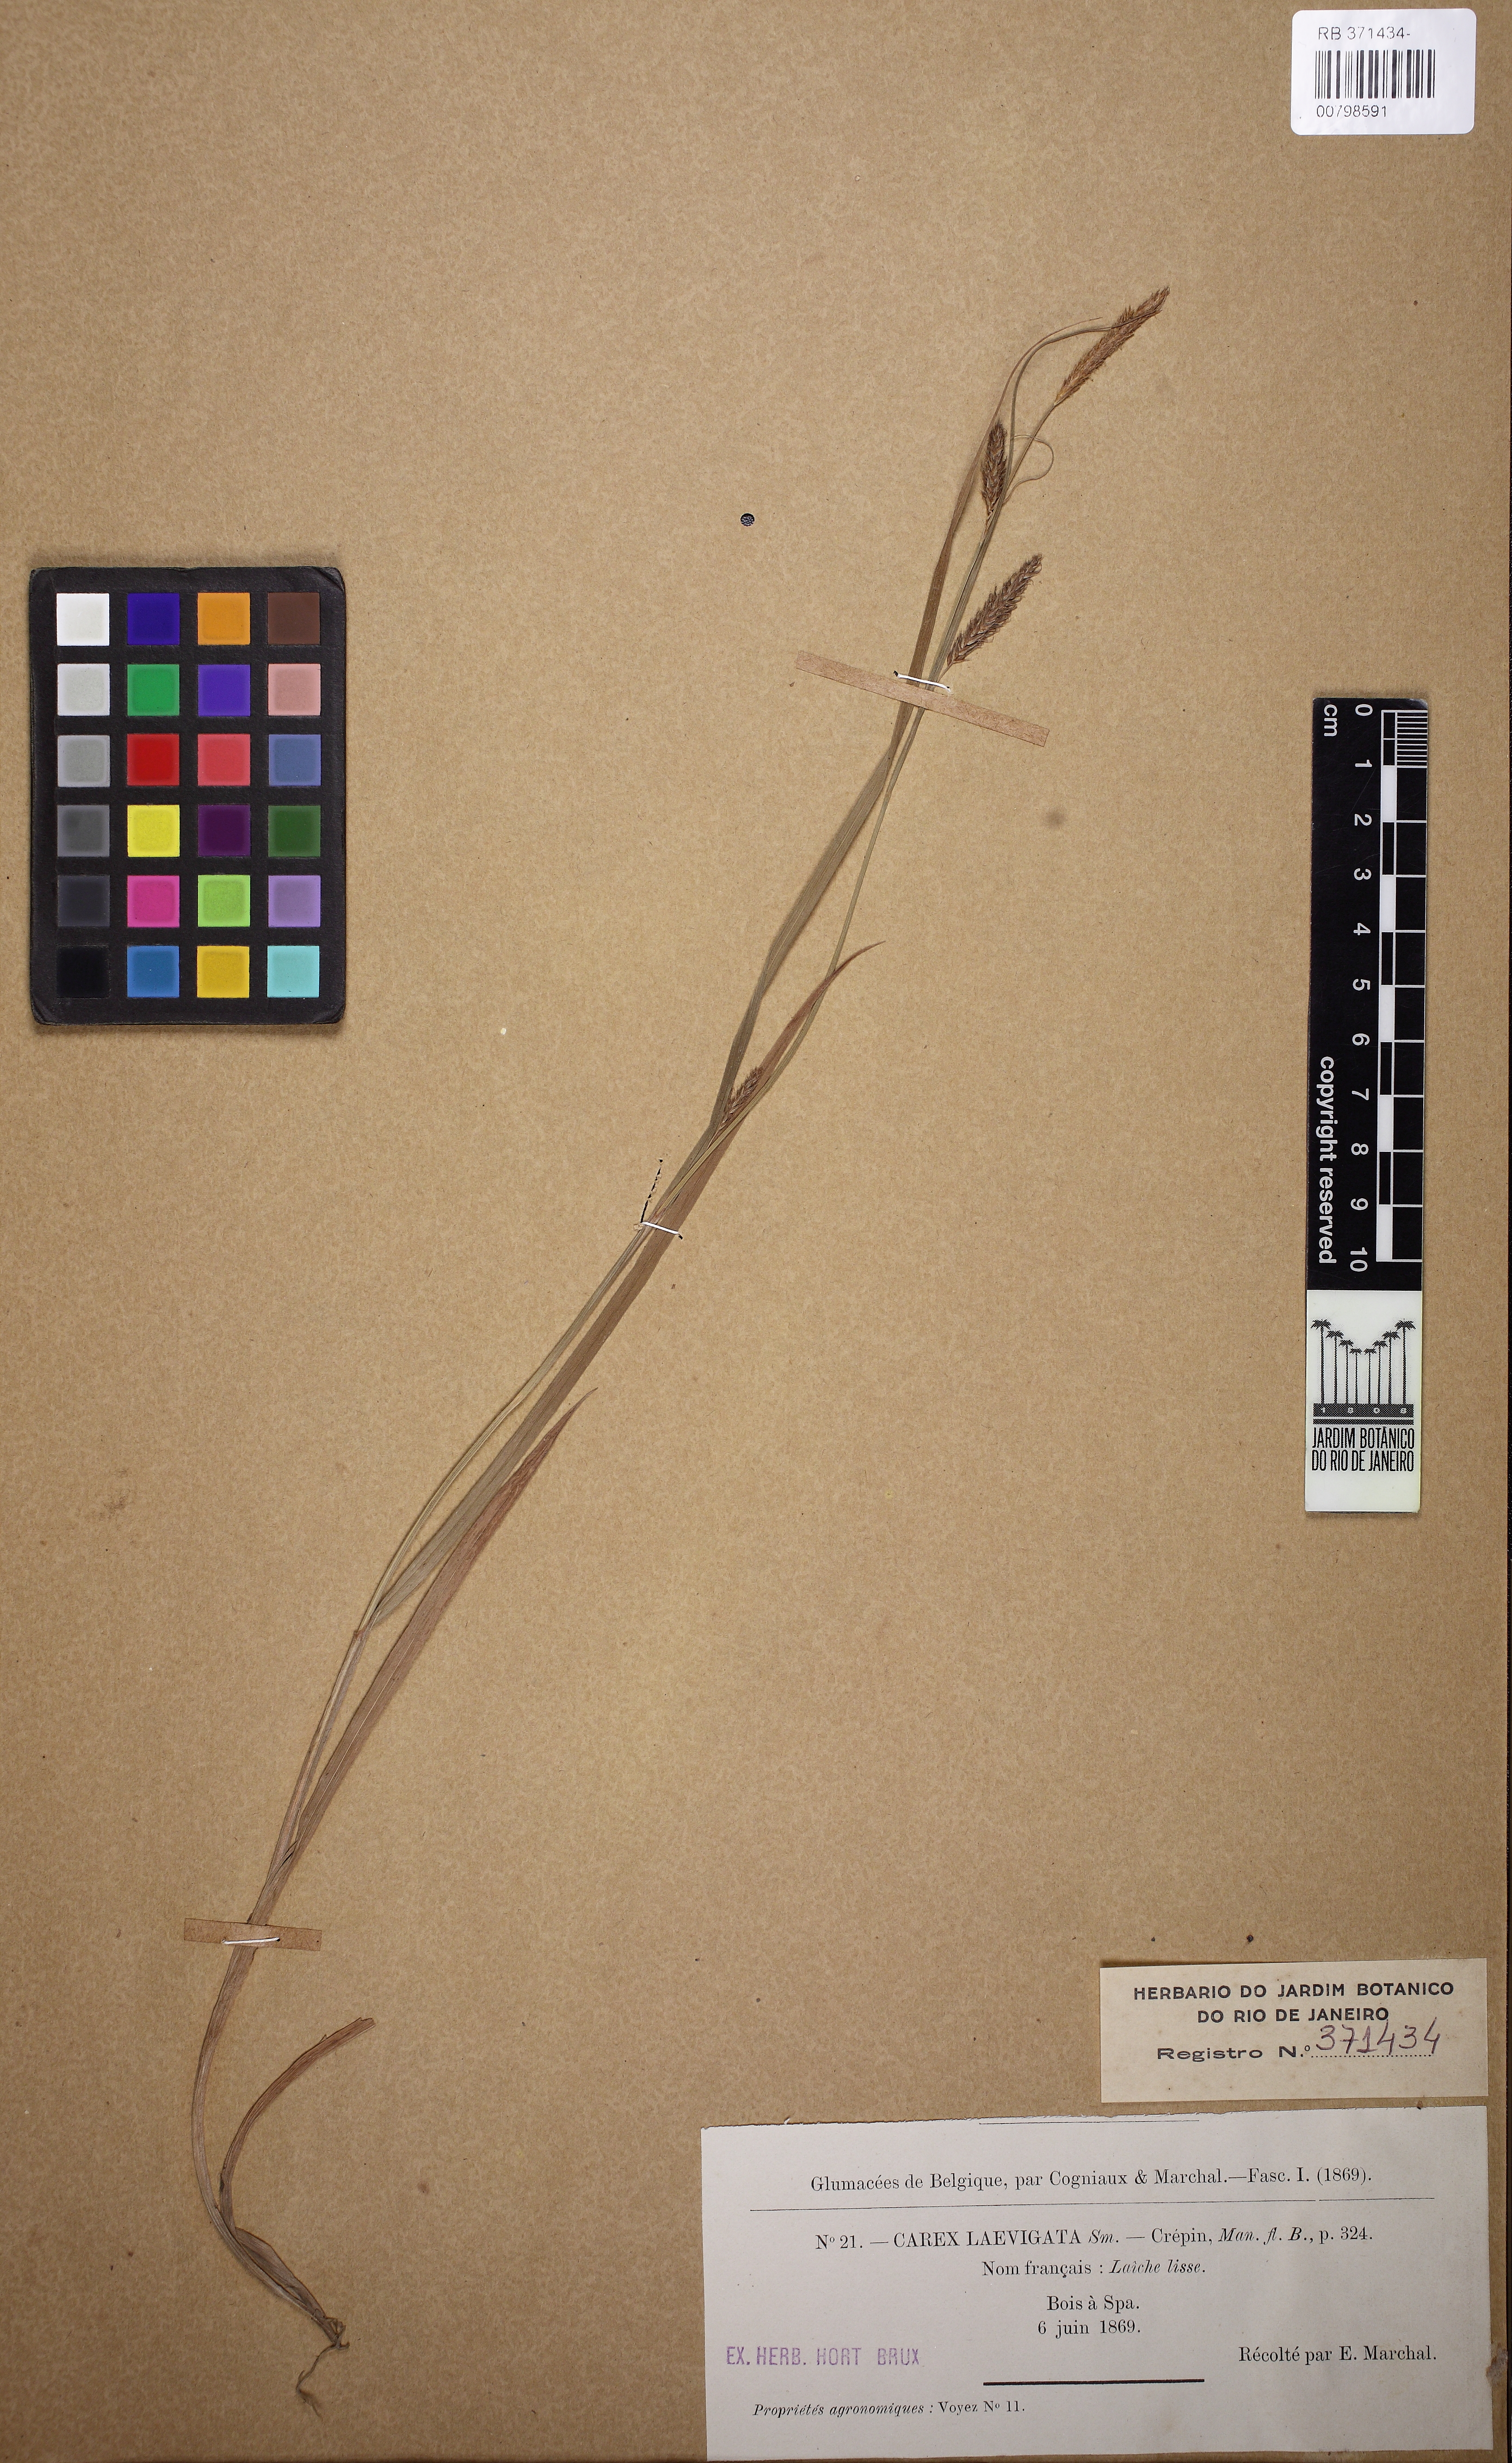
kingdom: Plantae
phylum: Tracheophyta
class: Liliopsida
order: Poales
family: Cyperaceae
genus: Carex
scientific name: Carex laevigata
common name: Smooth-stalked sedge
